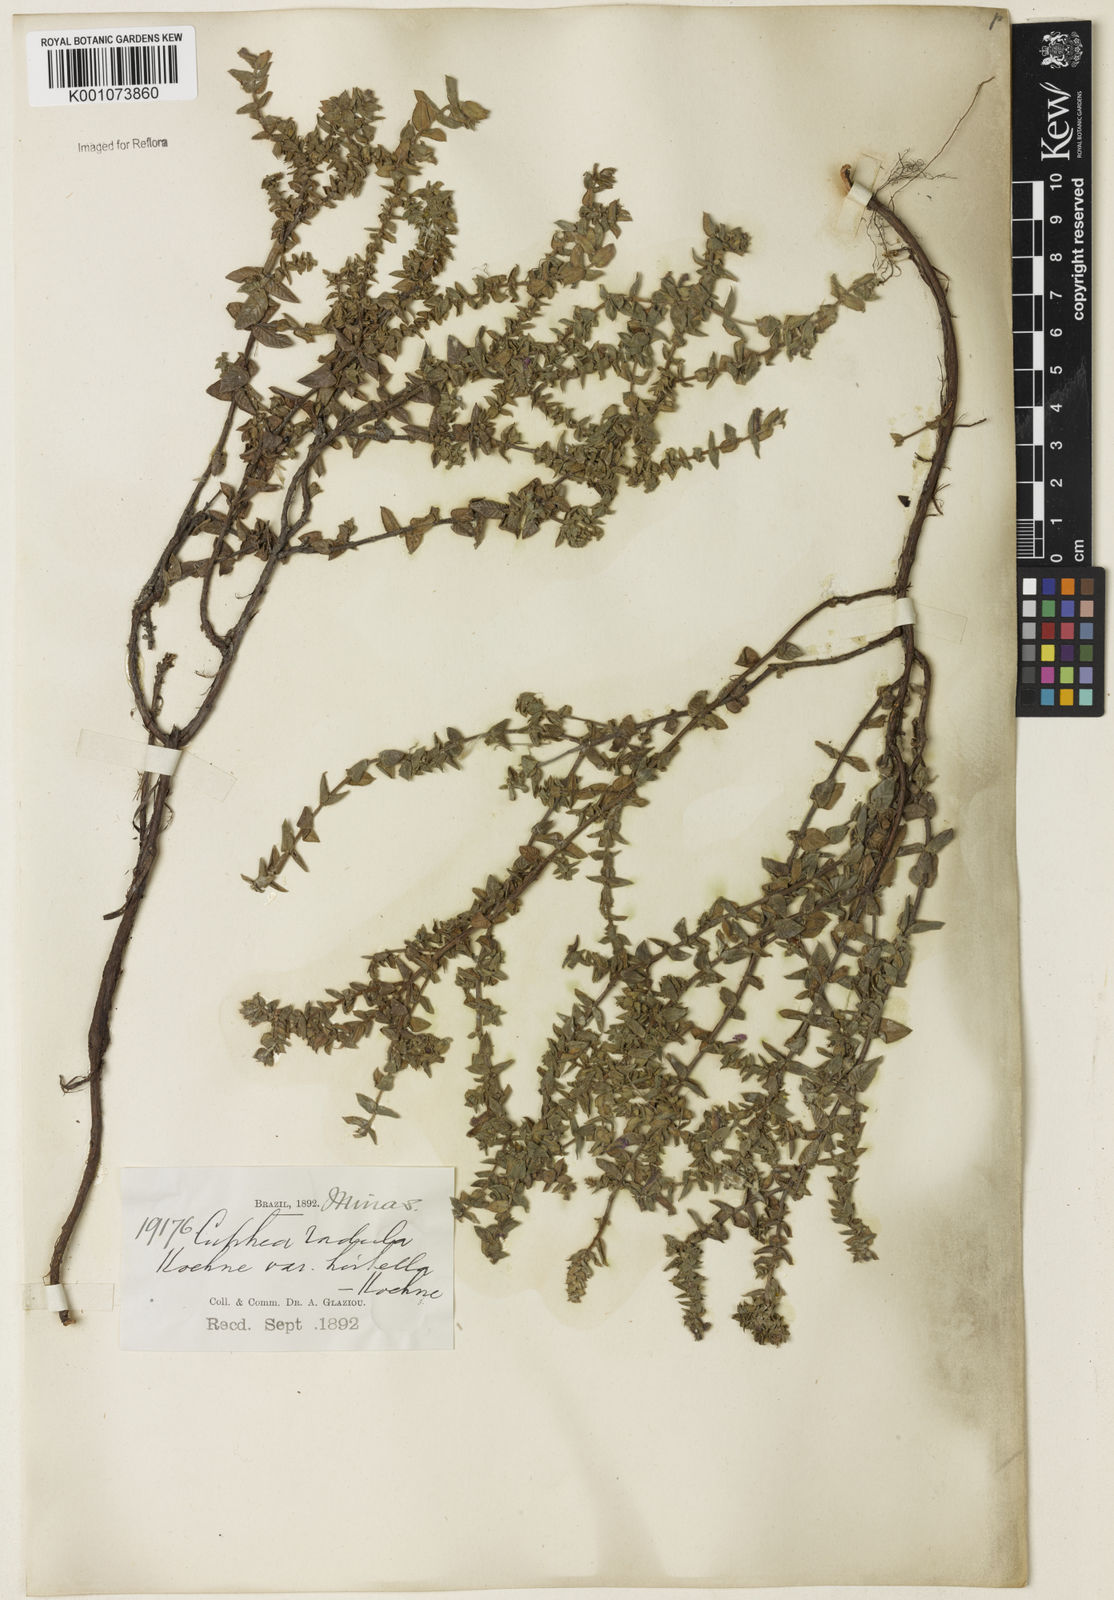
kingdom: Plantae
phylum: Tracheophyta
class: Magnoliopsida
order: Myrtales
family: Lythraceae
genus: Cuphea
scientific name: Cuphea antisyphilitica
